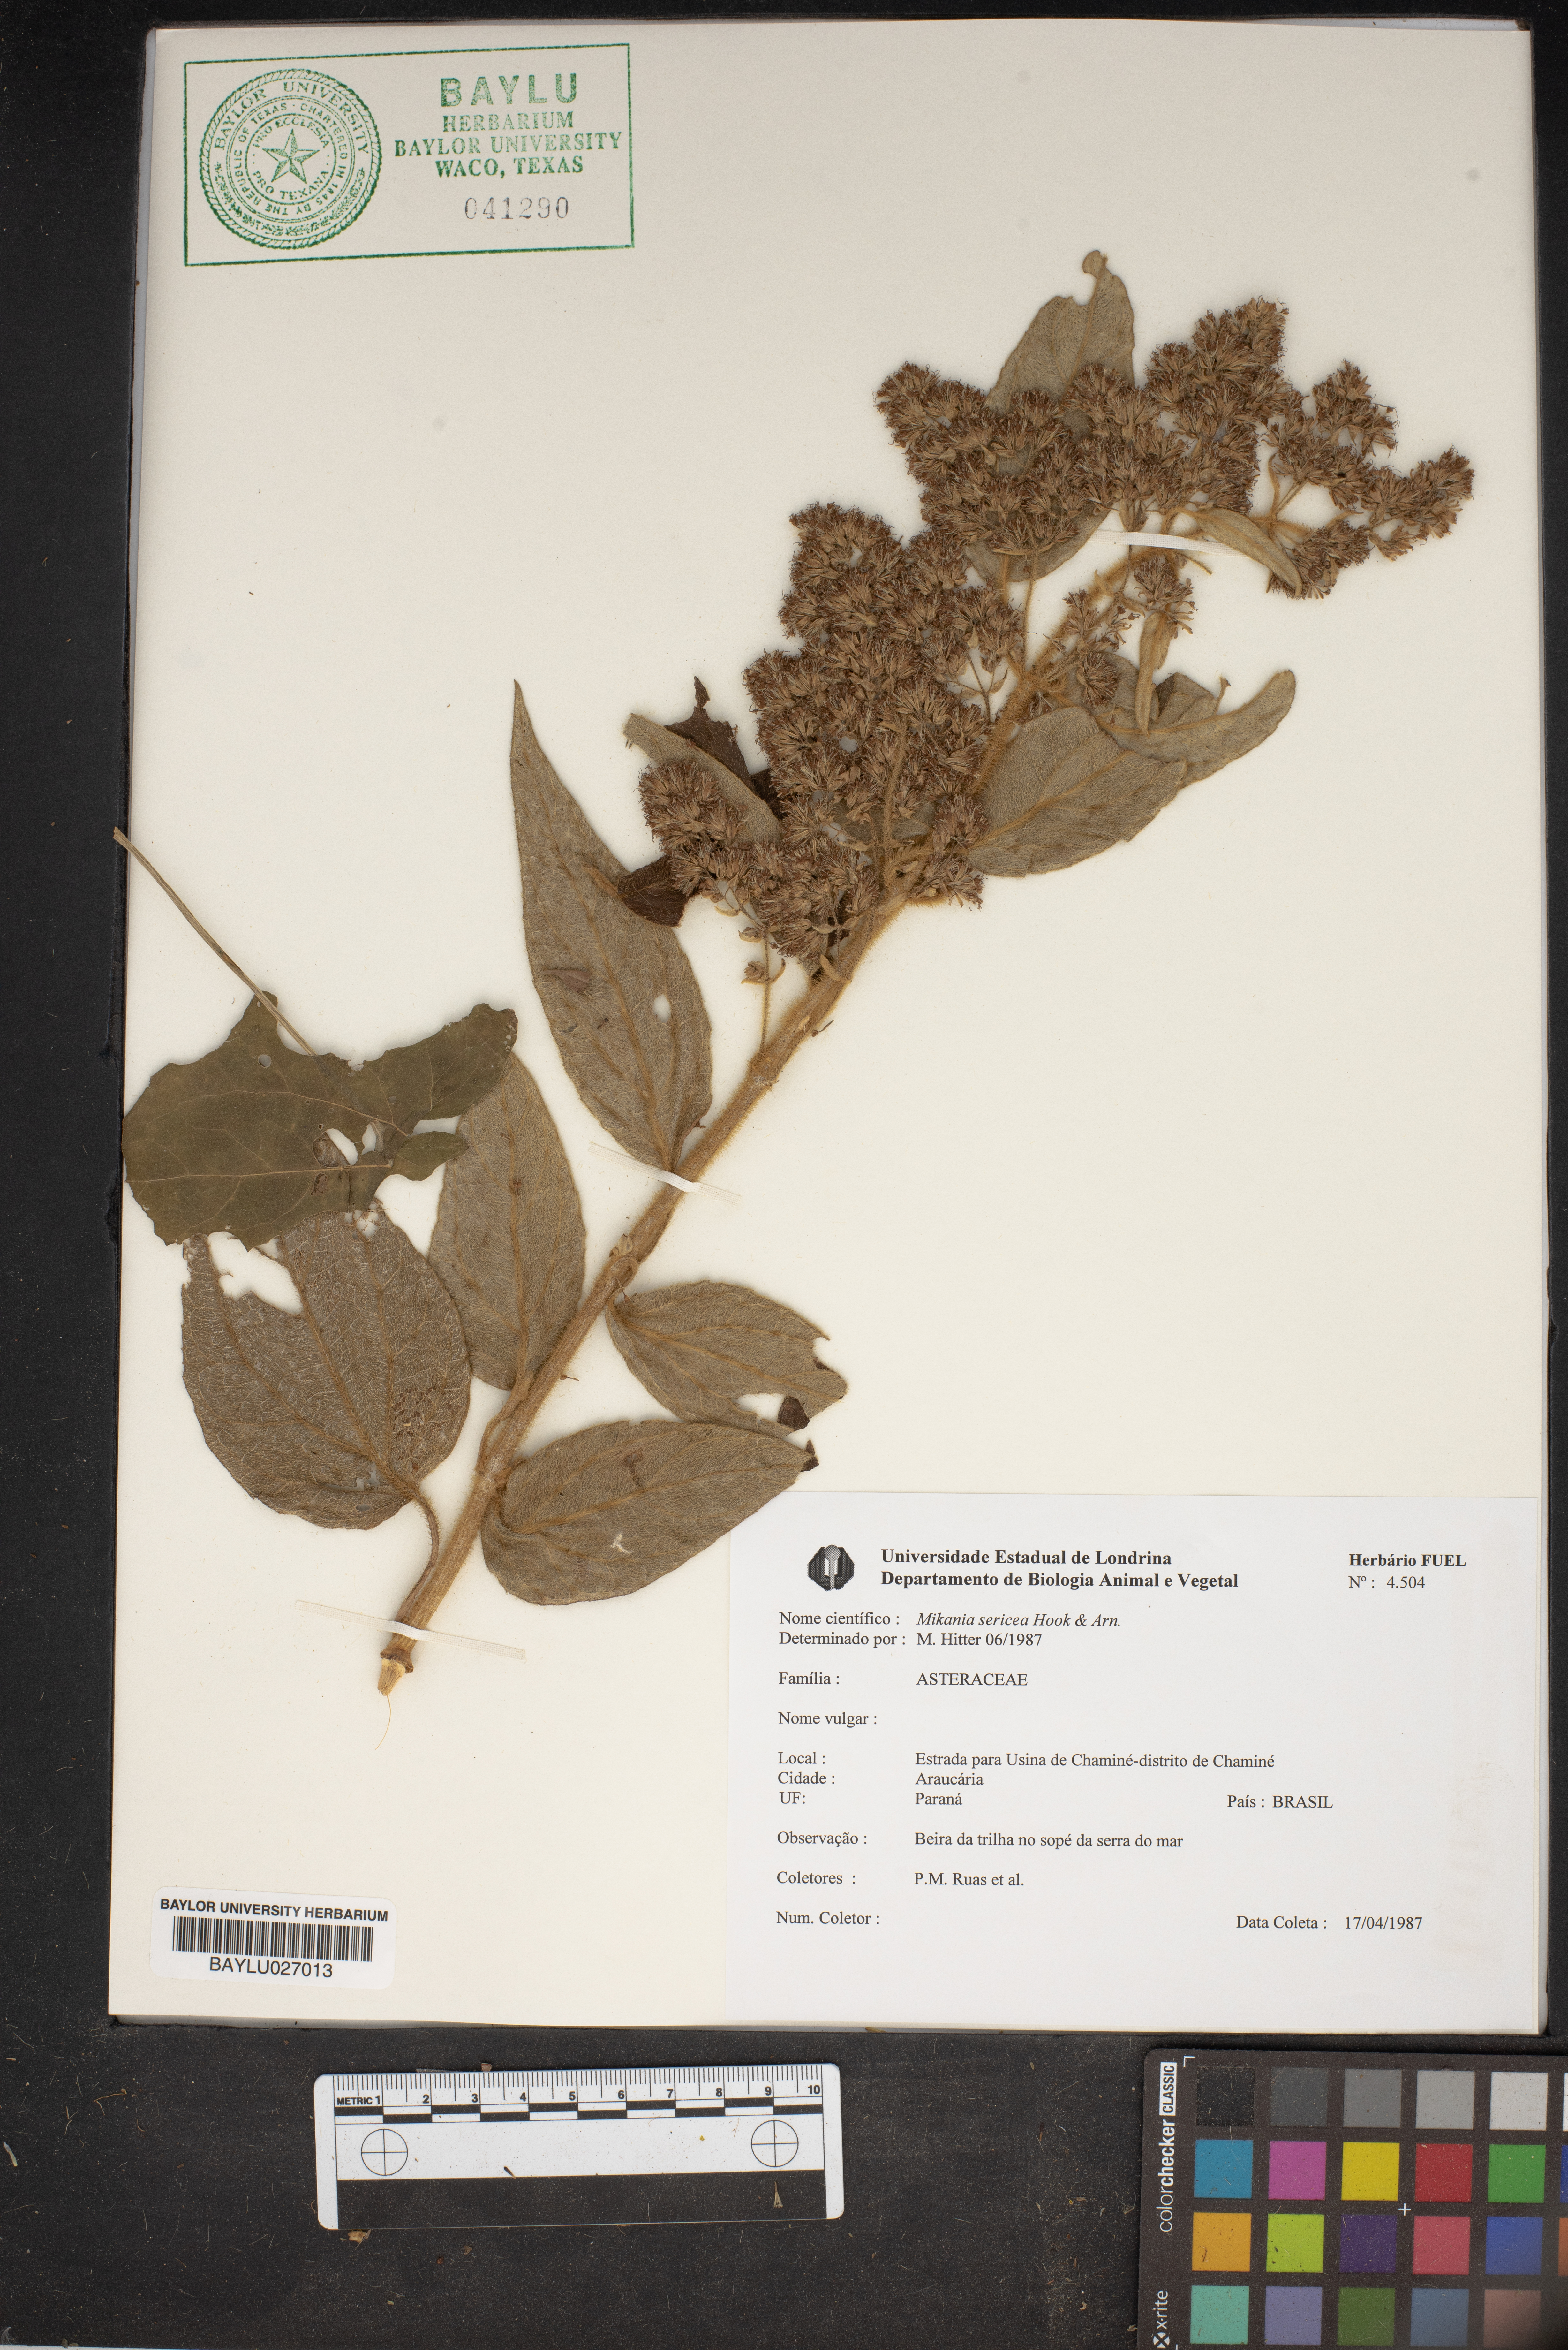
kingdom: Plantae
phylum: Tracheophyta
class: Magnoliopsida
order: Asterales
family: Asteraceae
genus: Mikania
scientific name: Mikania sericea
